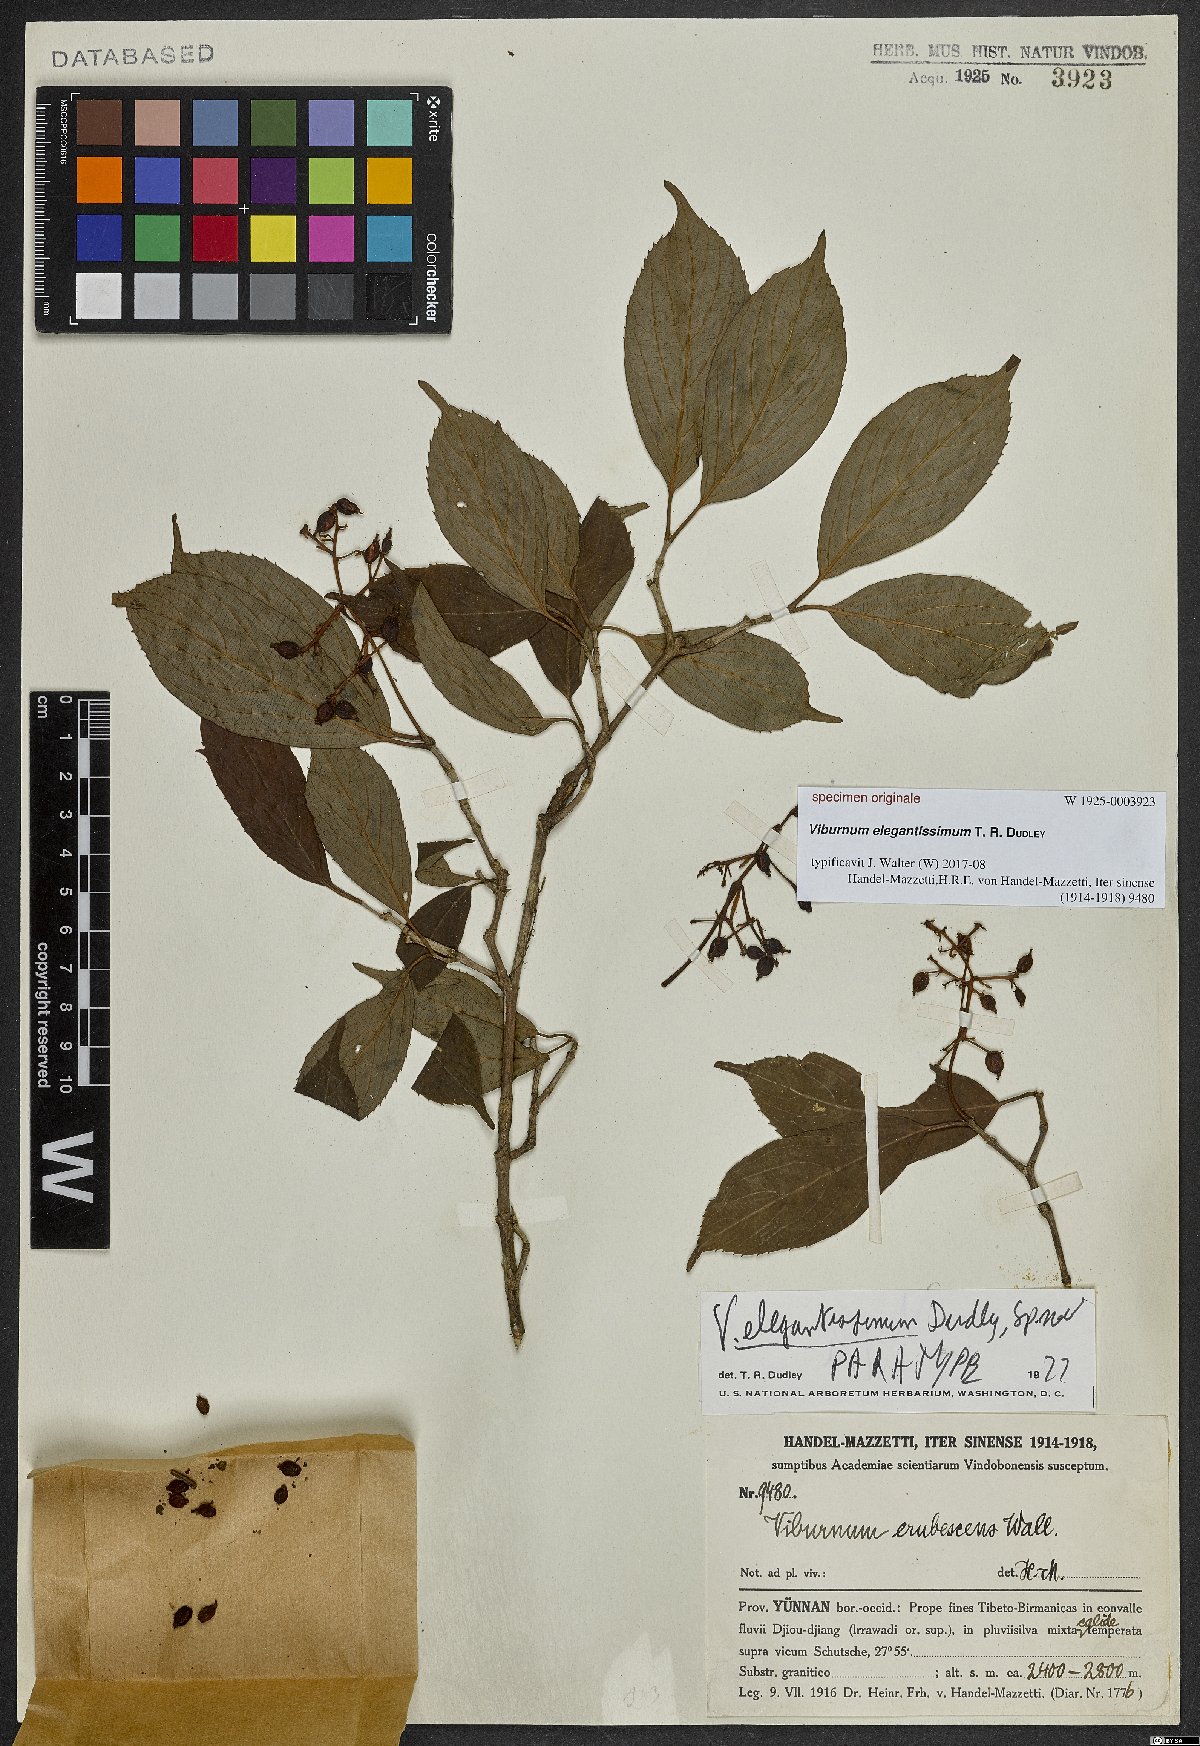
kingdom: Plantae
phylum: Tracheophyta
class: Magnoliopsida
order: Dipsacales
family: Viburnaceae
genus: Viburnum
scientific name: Viburnum
